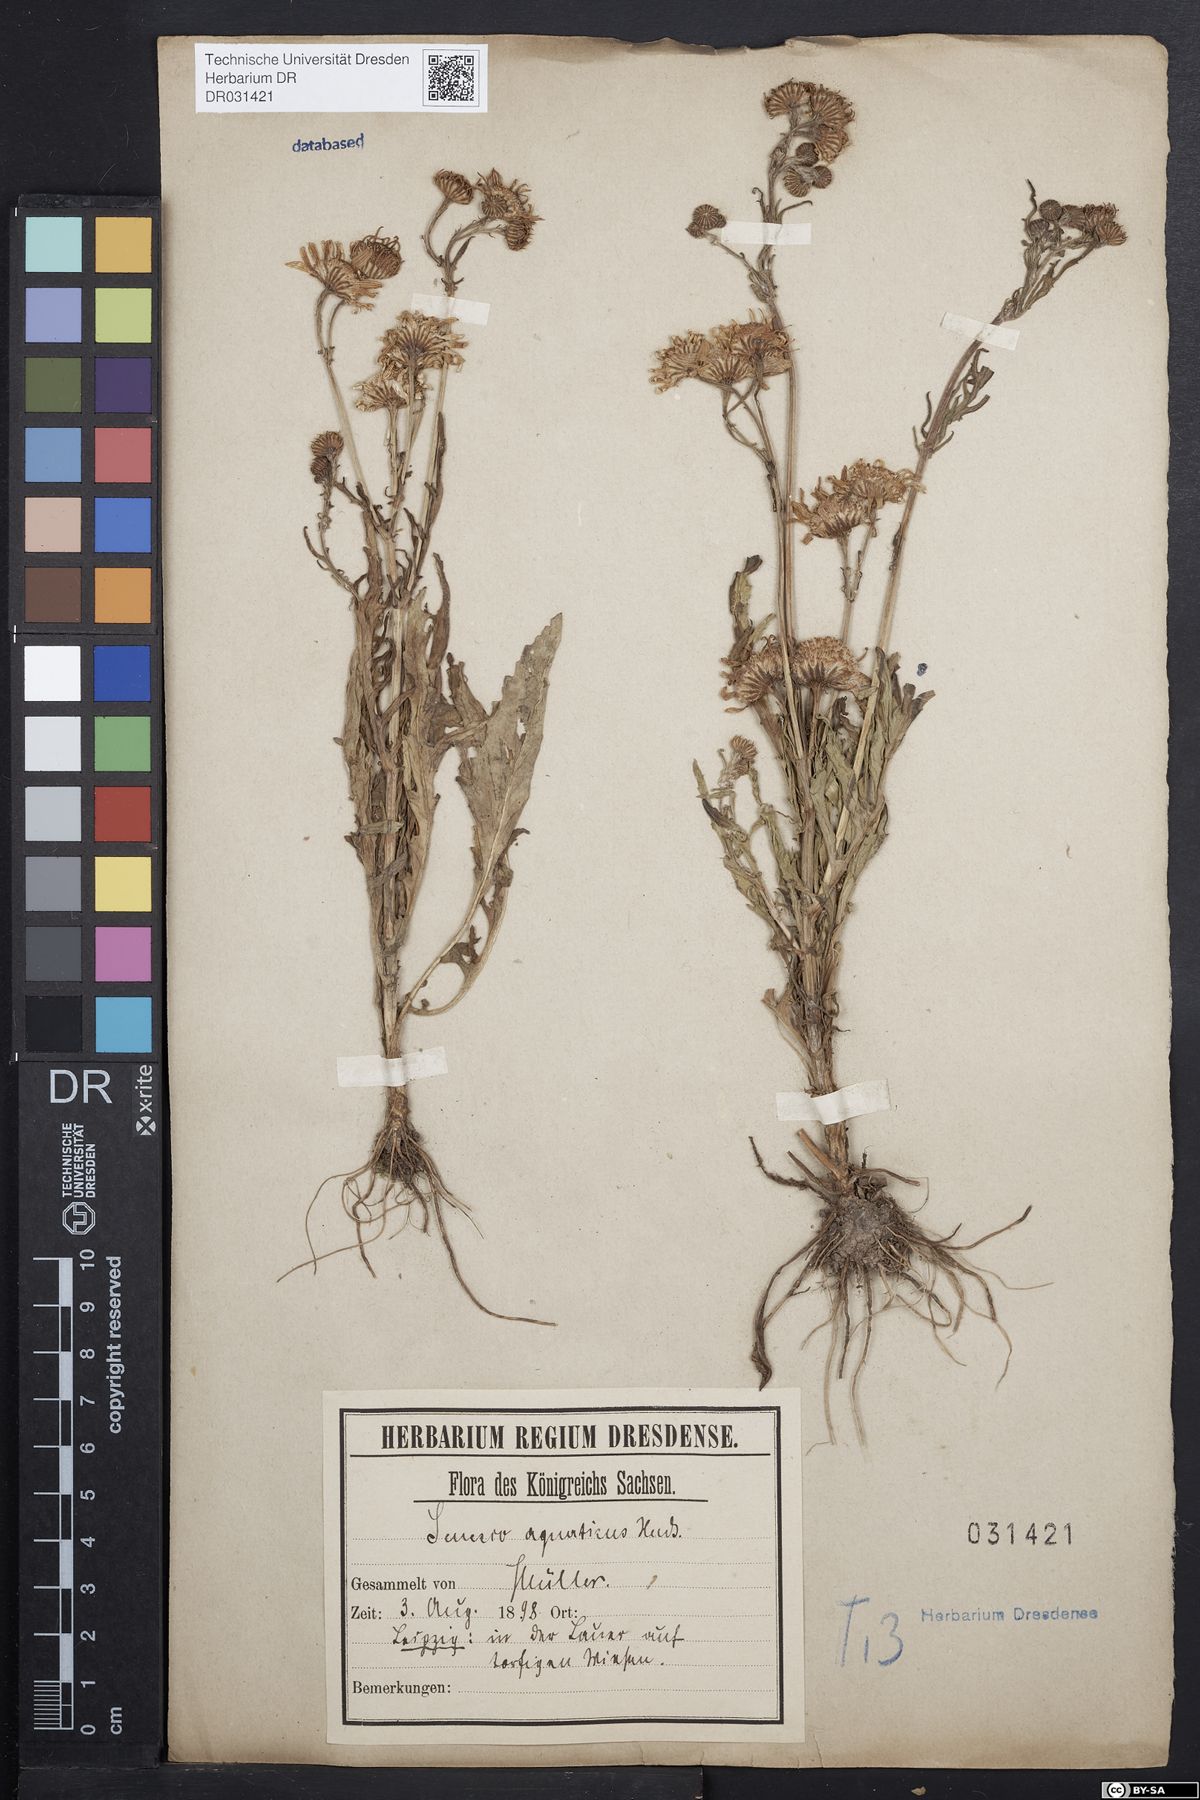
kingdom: Plantae
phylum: Tracheophyta
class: Magnoliopsida
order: Asterales
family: Asteraceae
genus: Jacobaea
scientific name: Jacobaea aquatica
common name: Water ragwort
